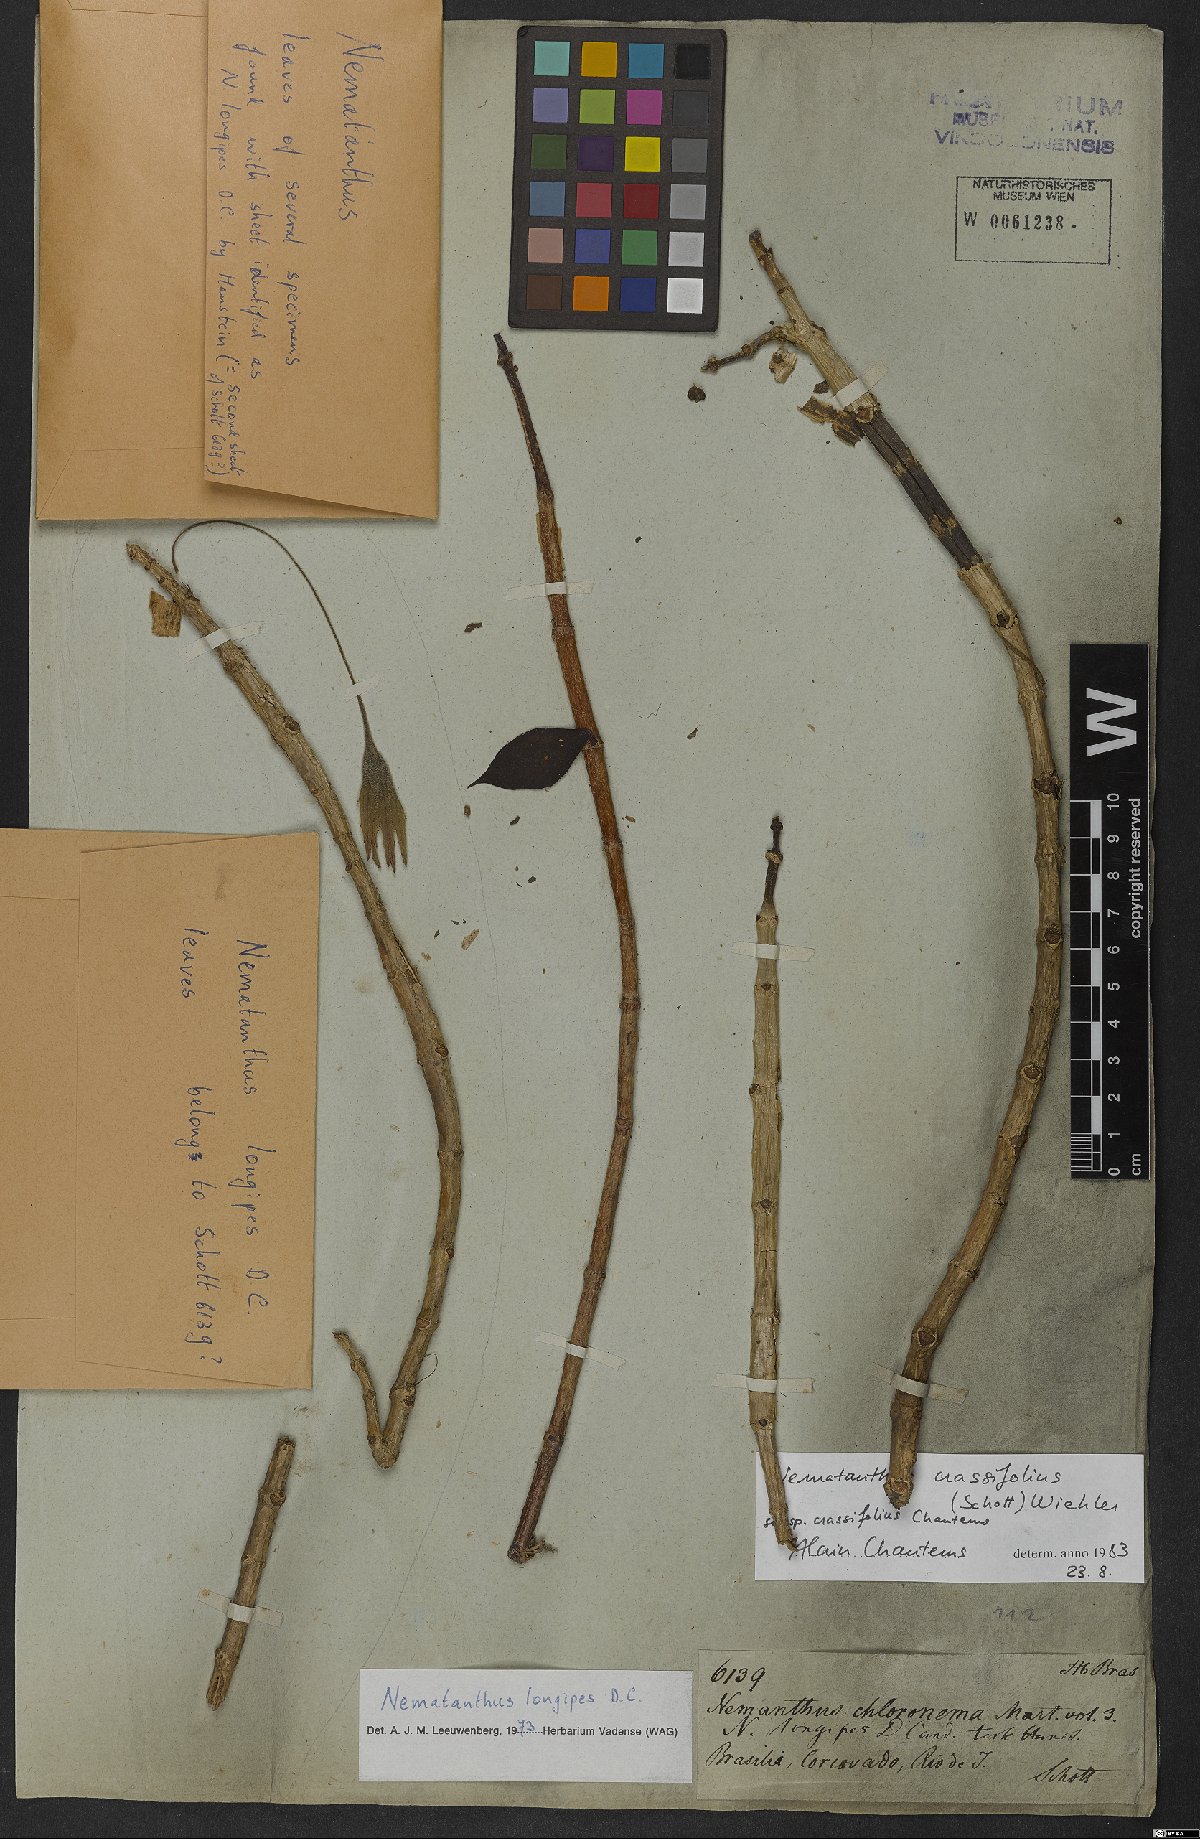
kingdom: Plantae
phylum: Tracheophyta
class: Magnoliopsida
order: Lamiales
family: Gesneriaceae
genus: Nematanthus
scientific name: Nematanthus crassifolius
